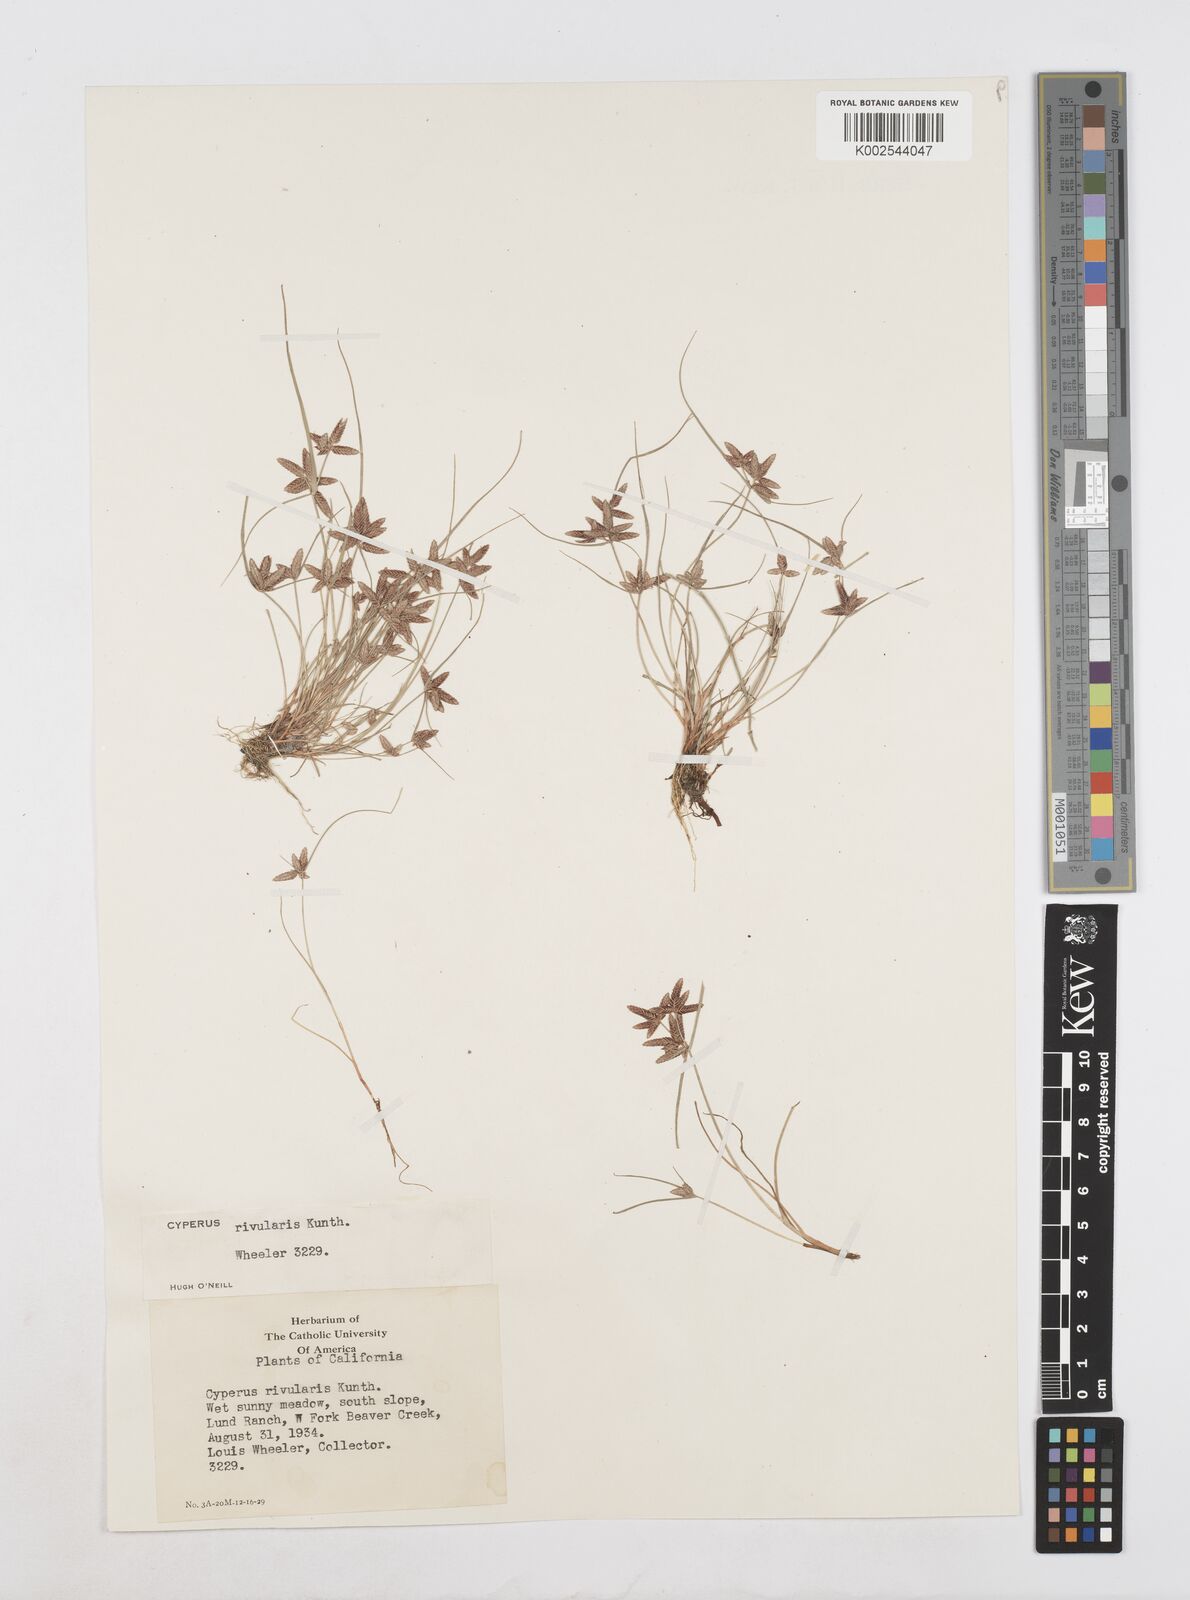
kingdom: Plantae
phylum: Tracheophyta
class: Liliopsida
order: Poales
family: Cyperaceae
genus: Cyperus
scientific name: Cyperus bipartitus
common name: Brook flatsedge
